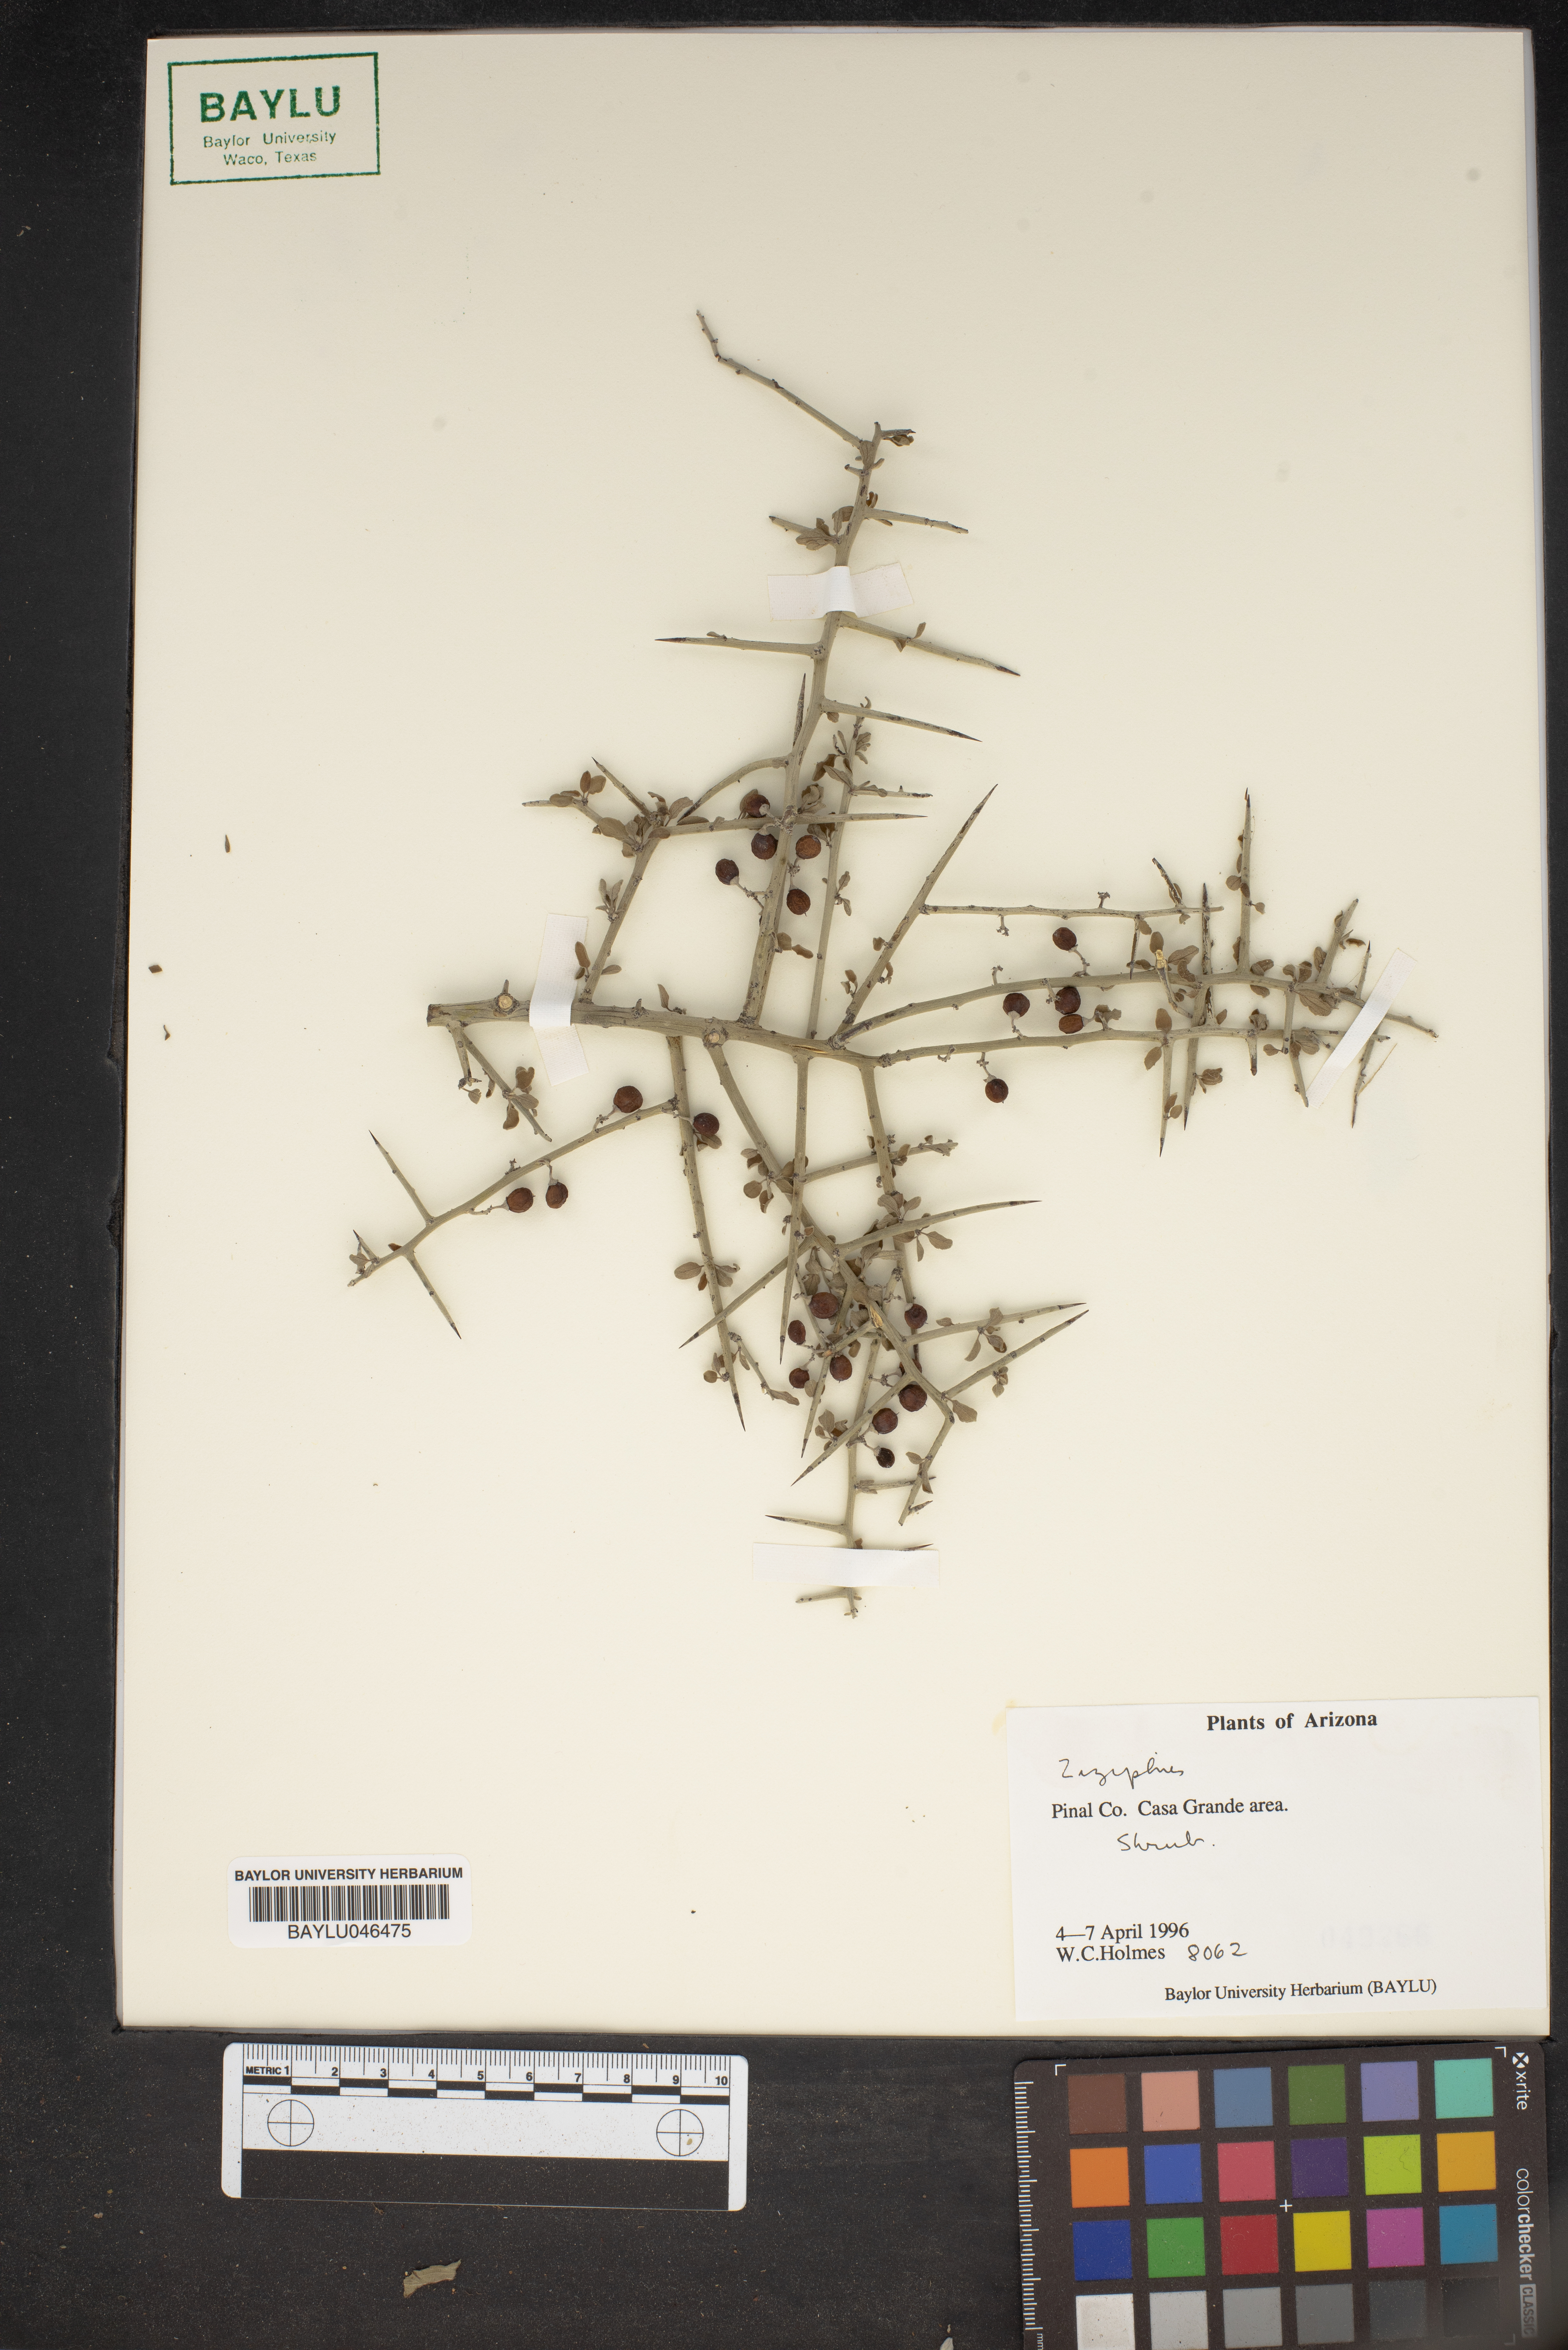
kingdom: Plantae
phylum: Tracheophyta
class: Magnoliopsida
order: Rosales
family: Rhamnaceae
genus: Ziziphus
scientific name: Ziziphus
